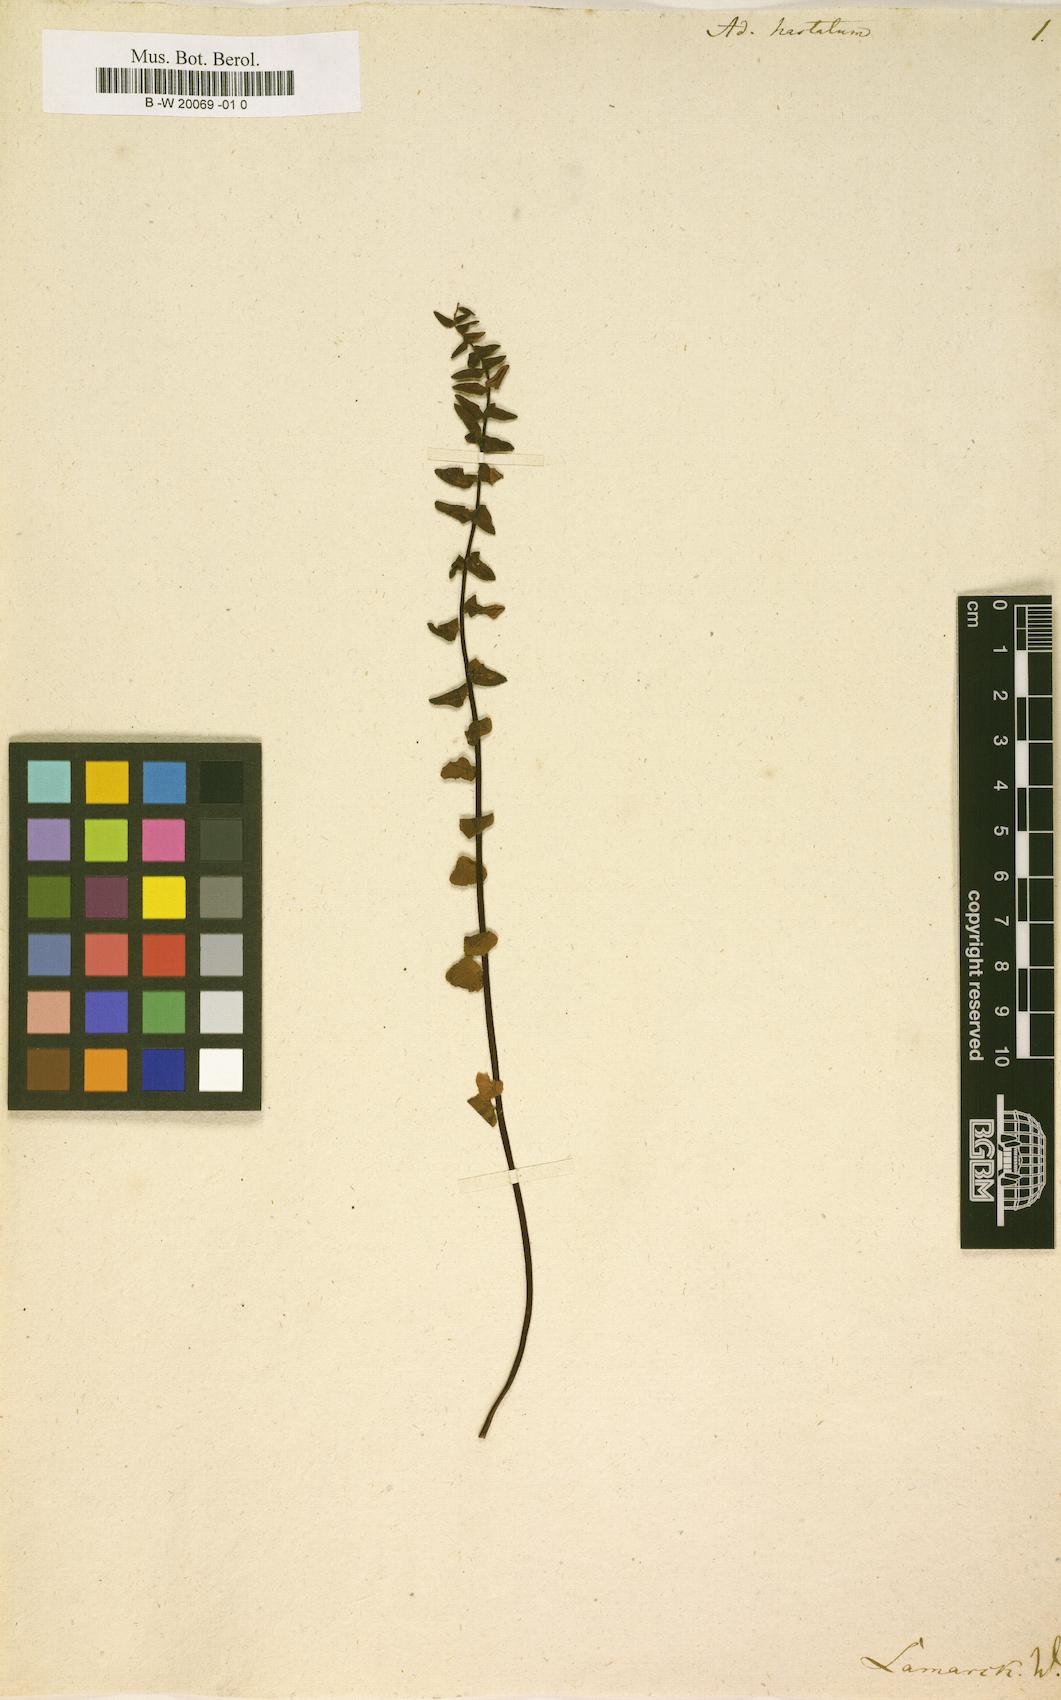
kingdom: Plantae
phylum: Tracheophyta
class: Polypodiopsida
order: Polypodiales
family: Pteridaceae
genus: Cheilanthes
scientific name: Cheilanthes hastata
